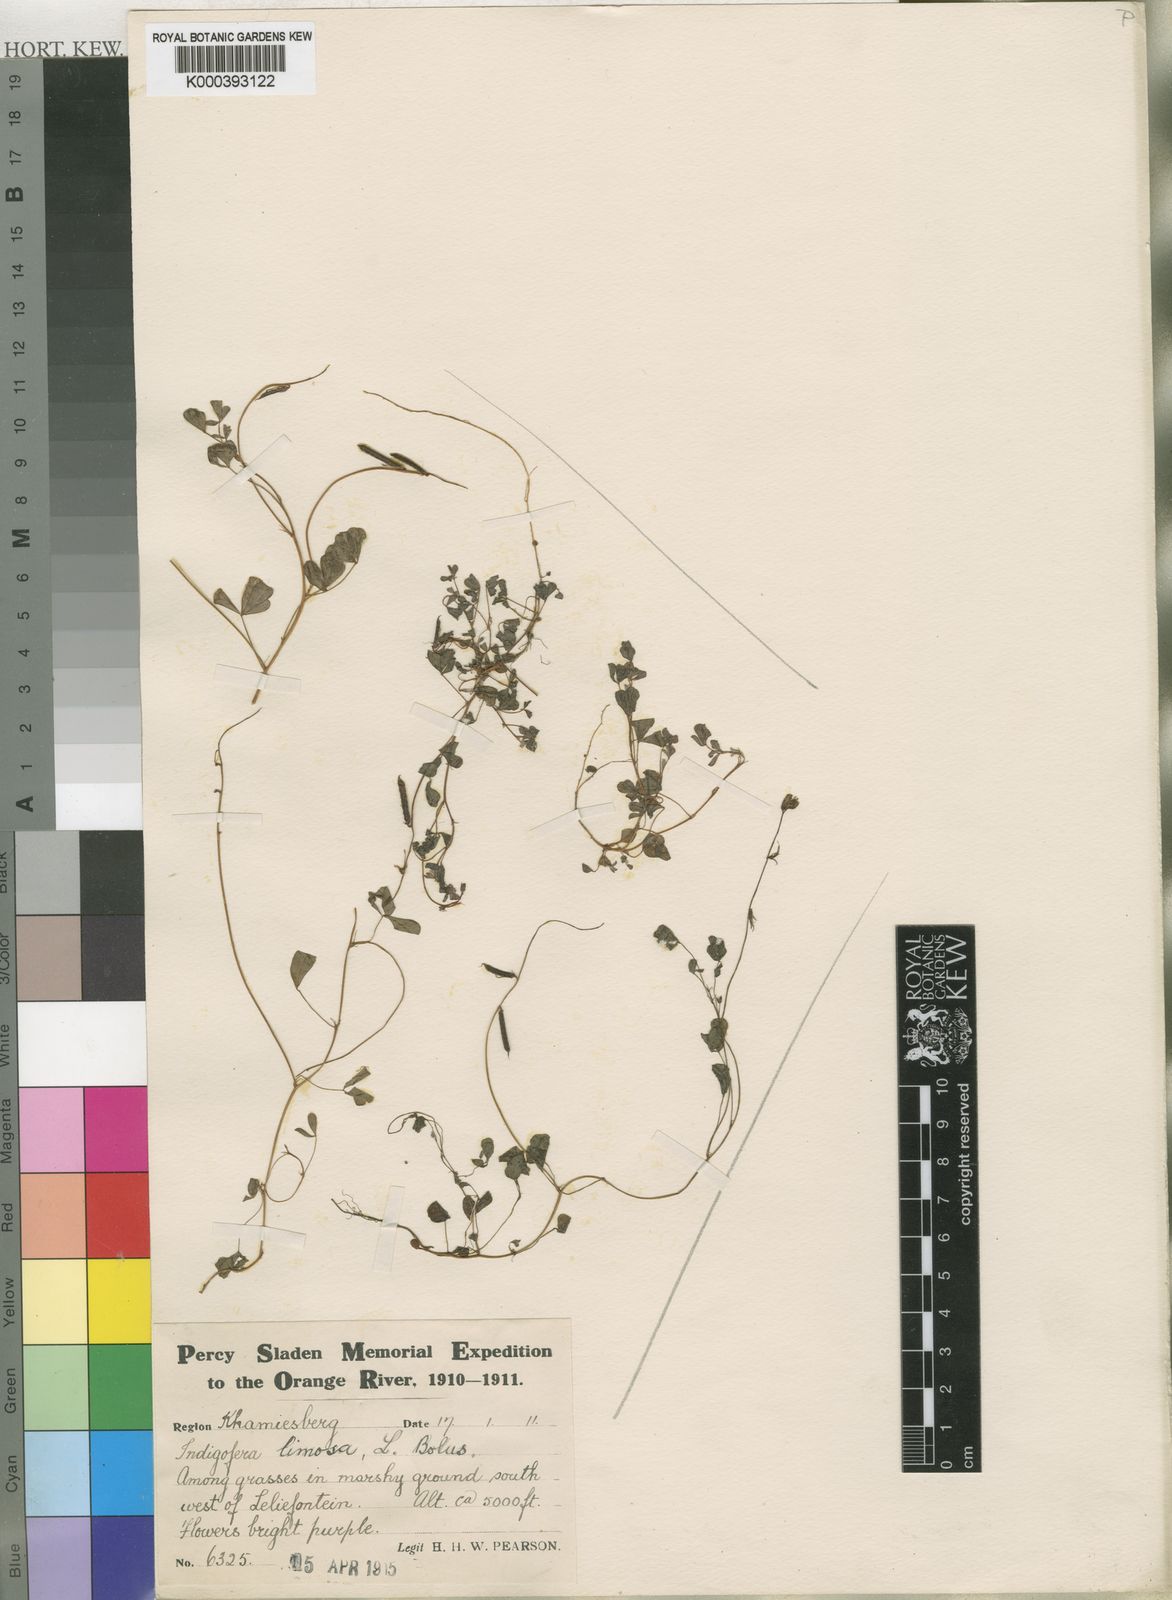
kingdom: Plantae
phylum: Tracheophyta
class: Magnoliopsida
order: Fabales
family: Fabaceae
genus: Indigofera
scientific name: Indigofera limosa
